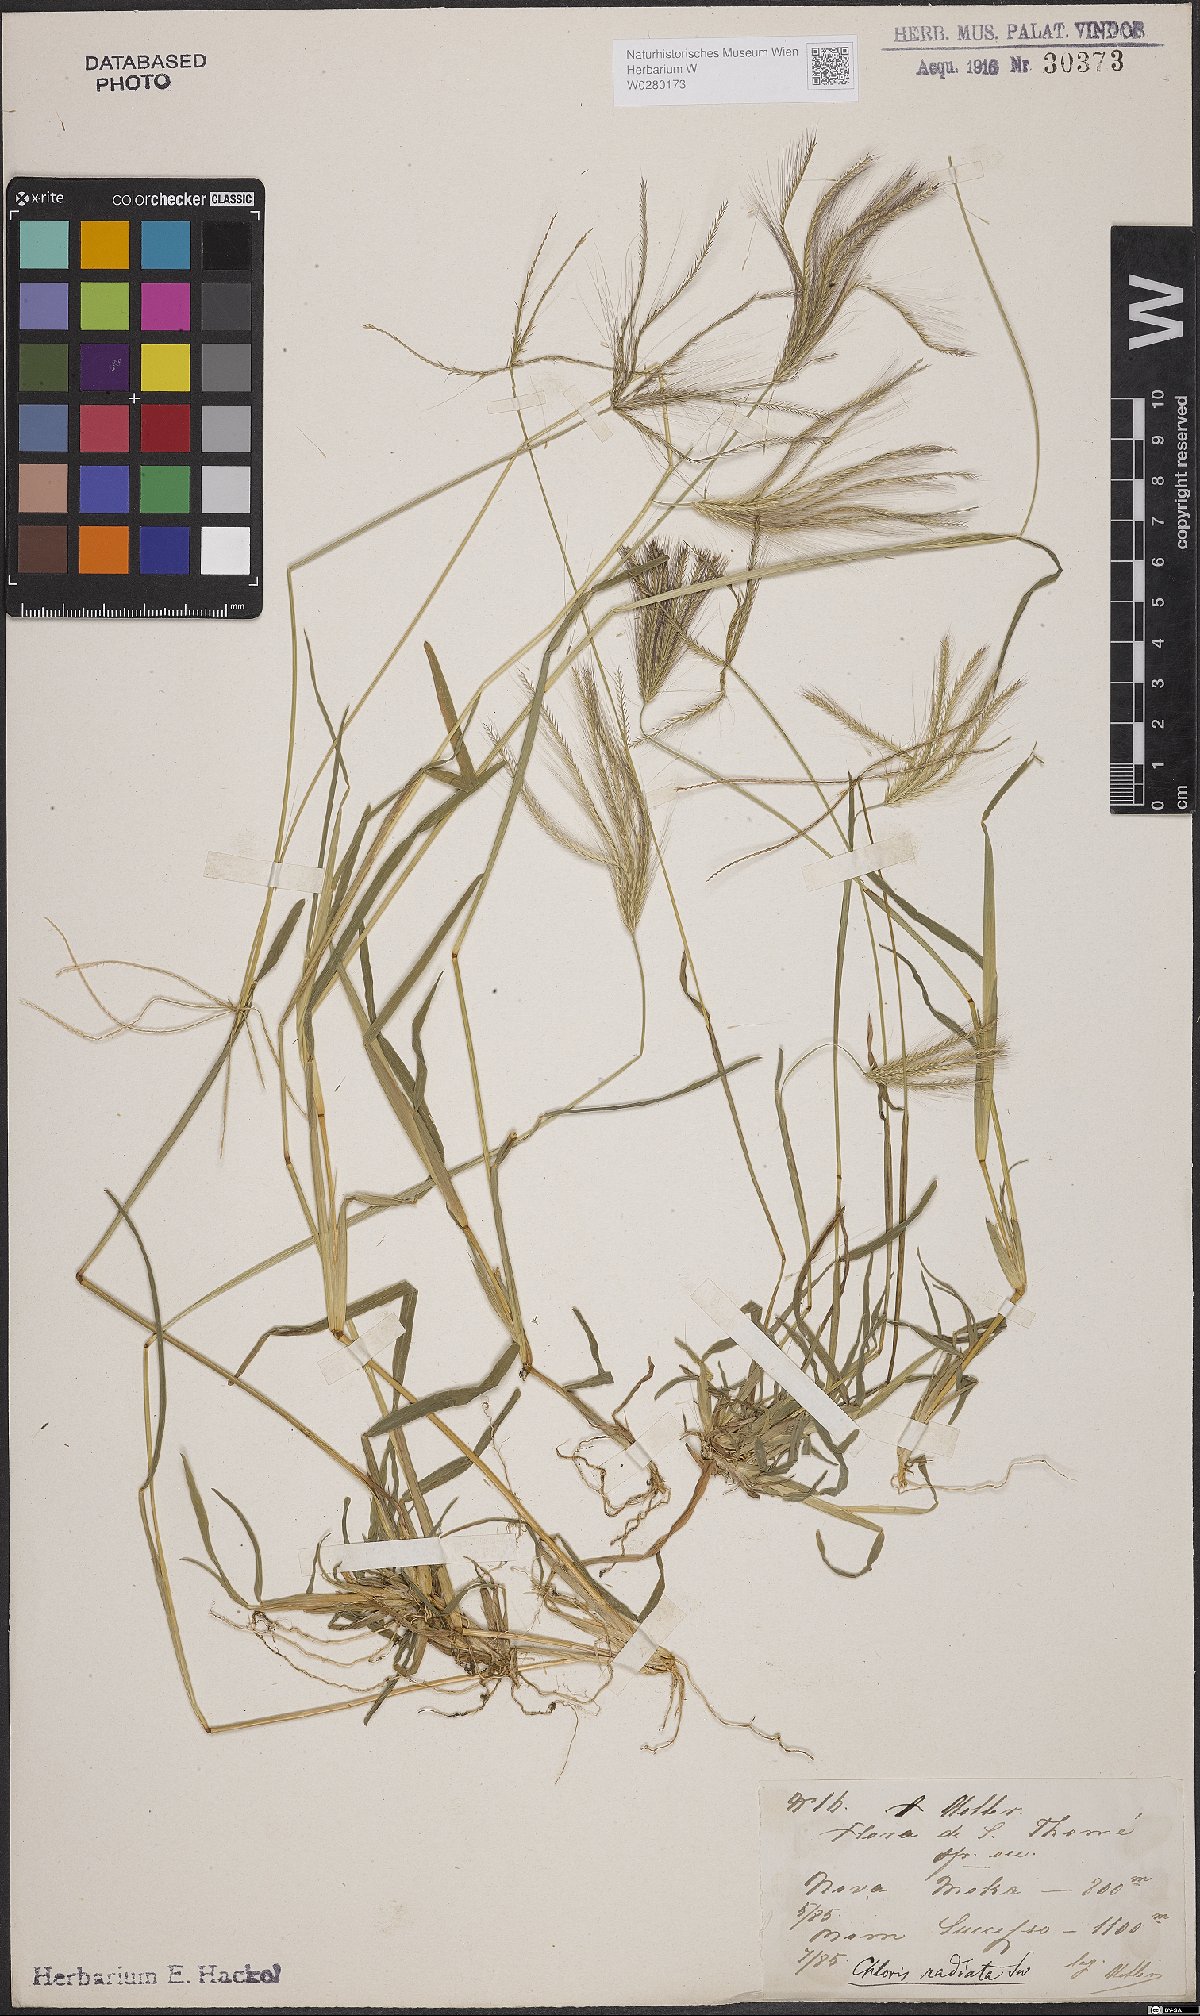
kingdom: Plantae
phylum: Tracheophyta
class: Liliopsida
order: Poales
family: Poaceae
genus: Chloris
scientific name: Chloris radiata
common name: Radiate fingergrass
